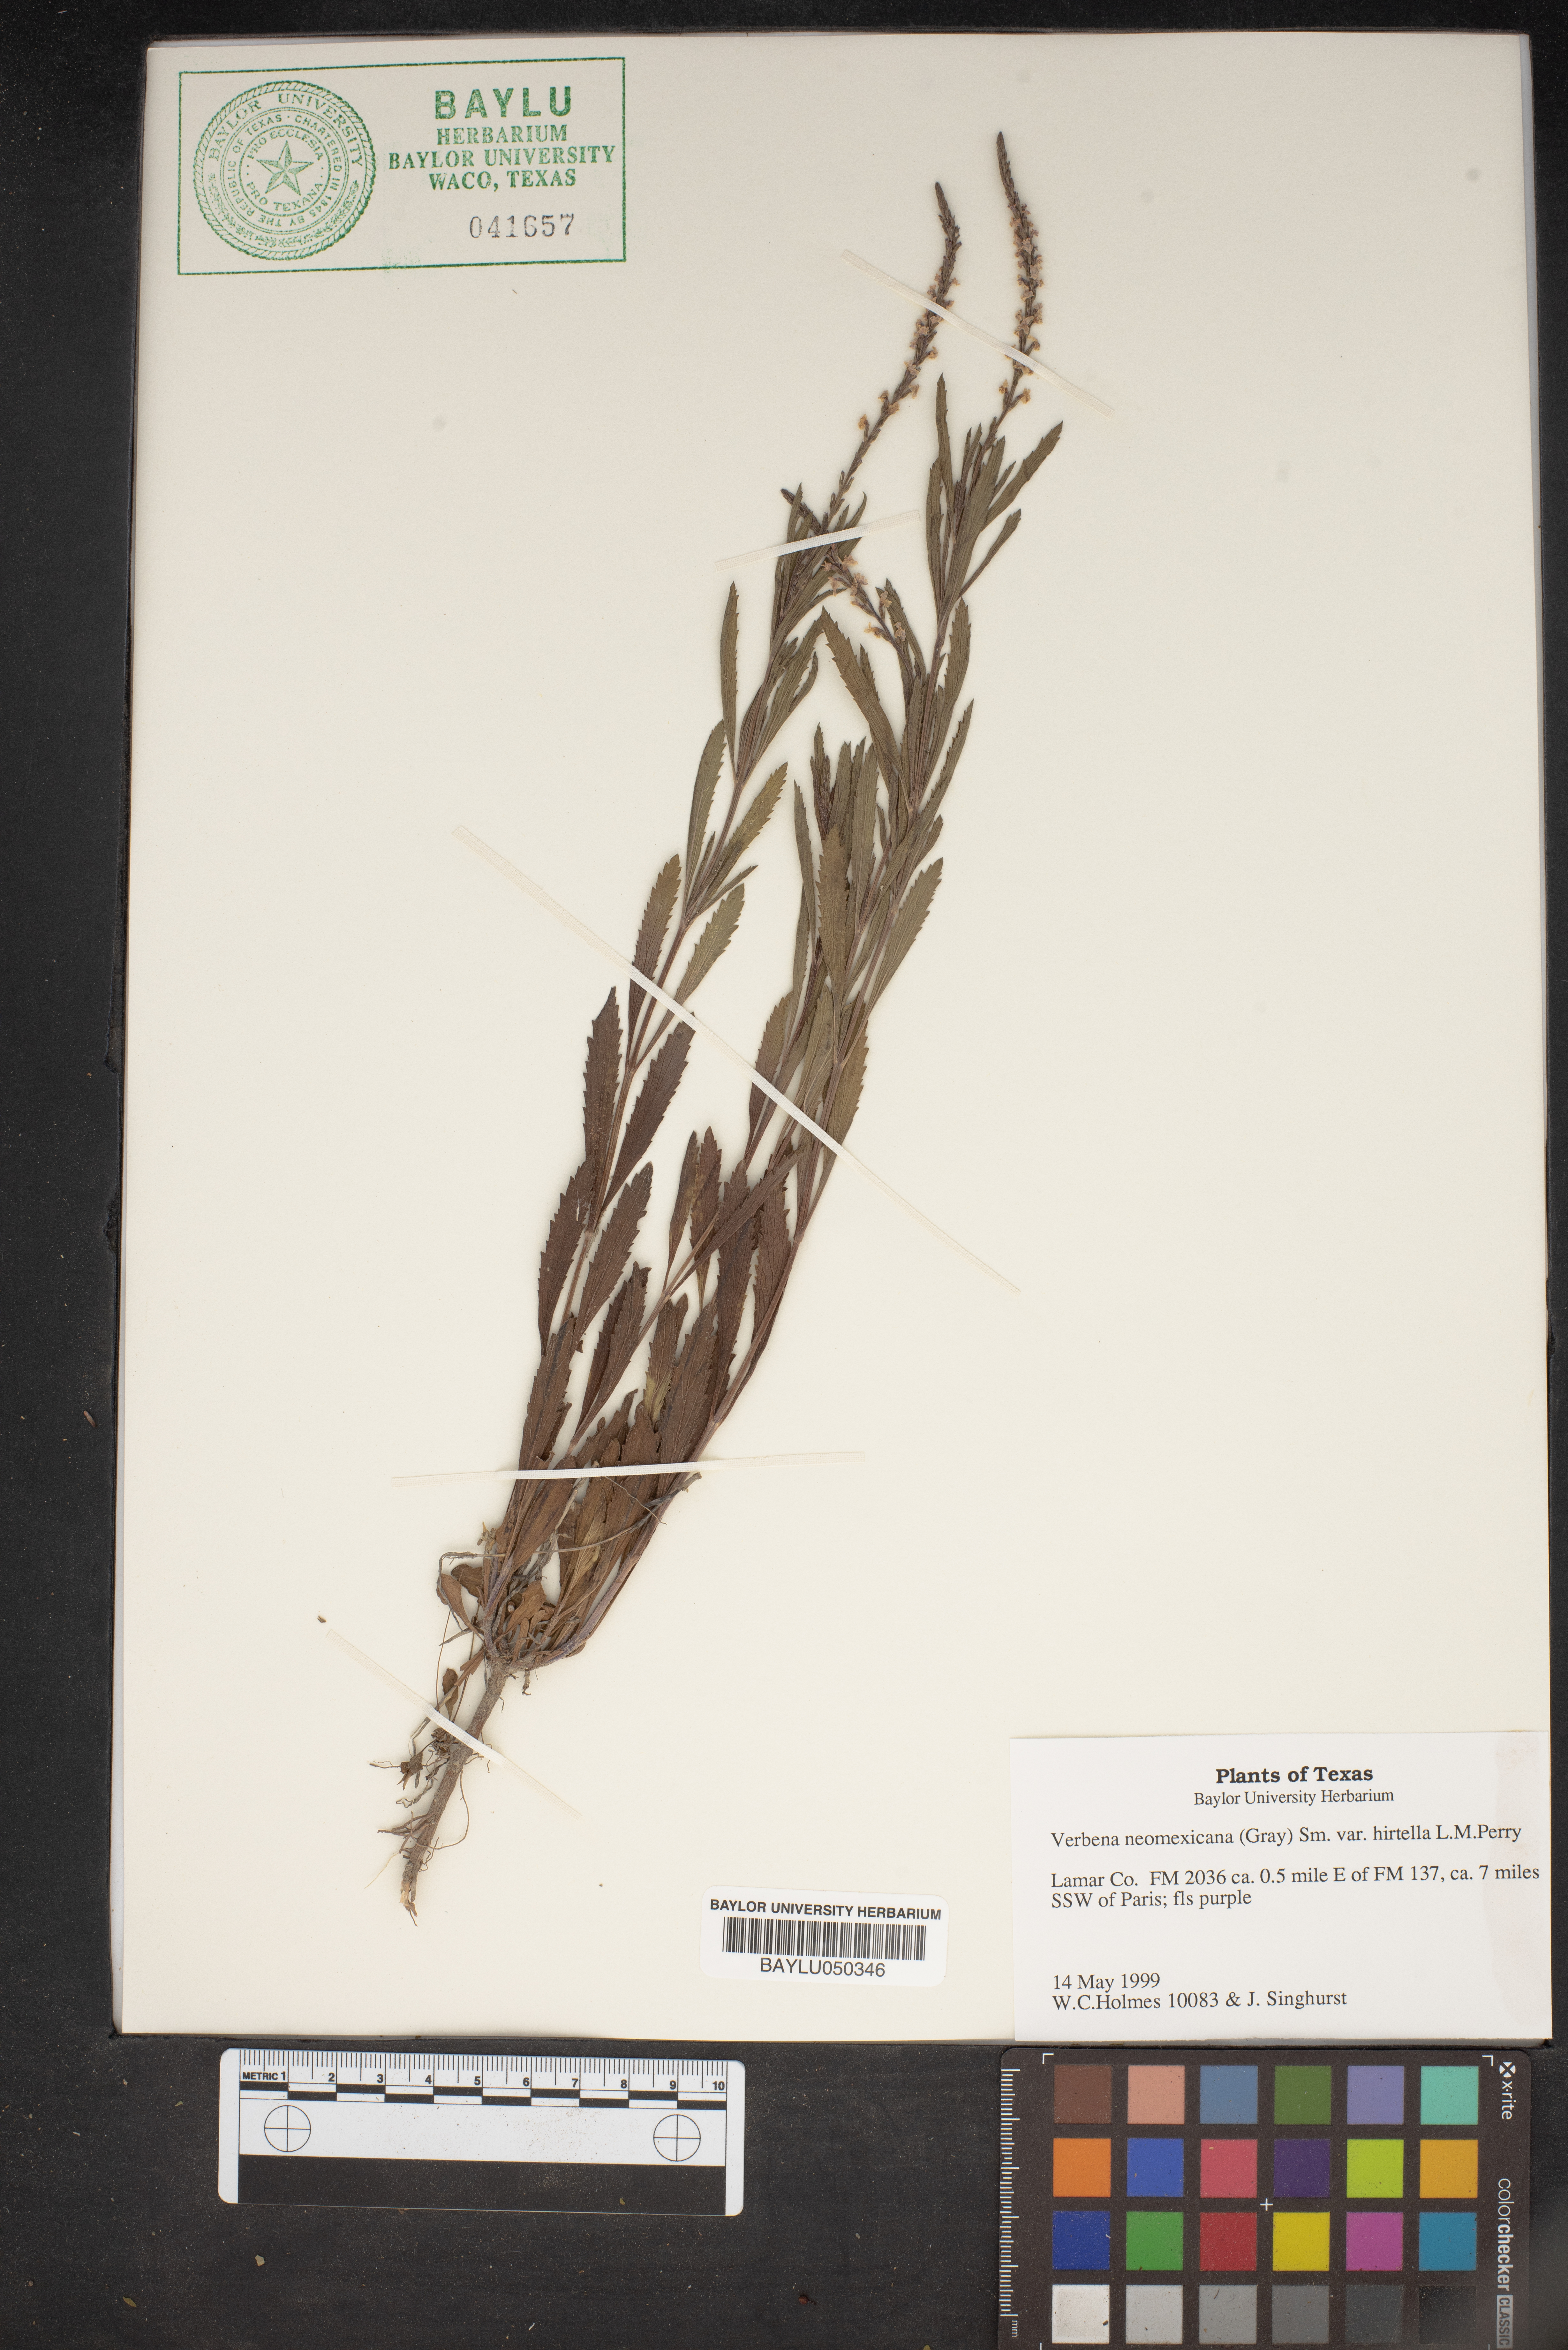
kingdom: Plantae
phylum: Tracheophyta
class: Magnoliopsida
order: Lamiales
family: Verbenaceae
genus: Verbena
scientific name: Verbena neomexicana
